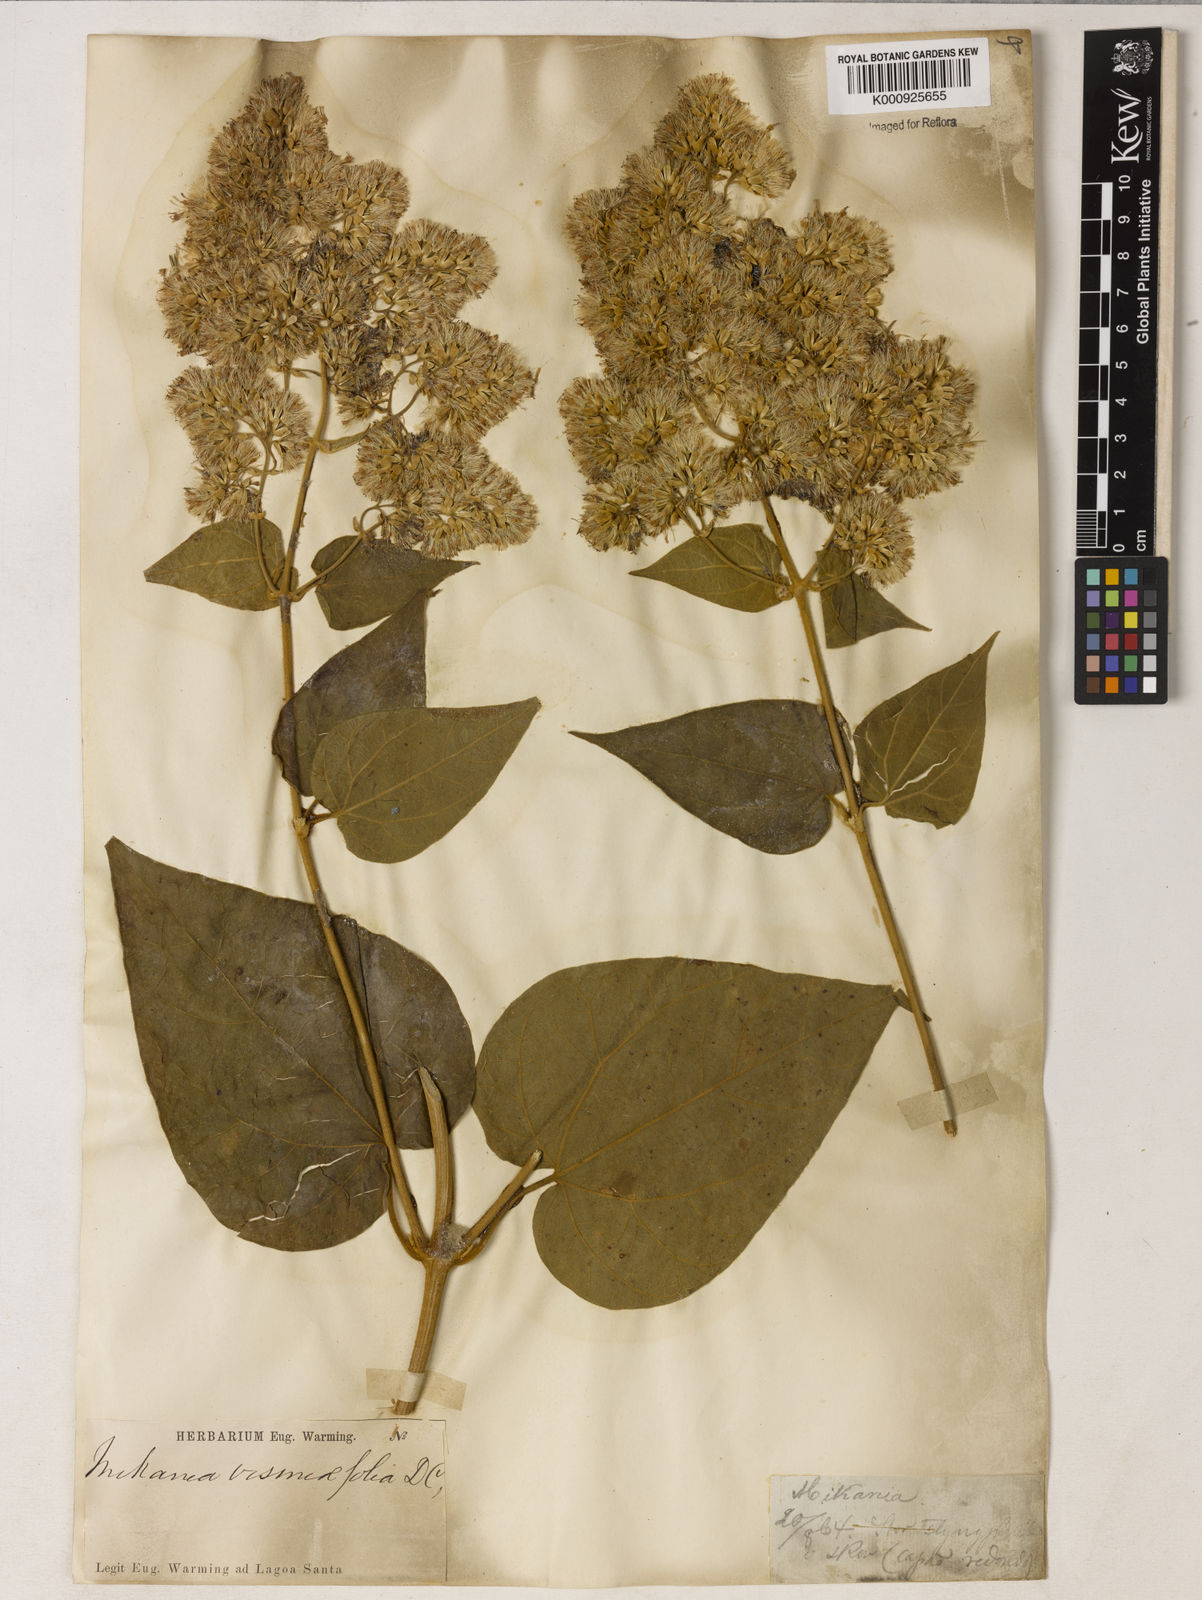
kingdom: Plantae
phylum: Tracheophyta
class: Magnoliopsida
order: Asterales
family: Asteraceae
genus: Mikania
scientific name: Mikania malacolepis
